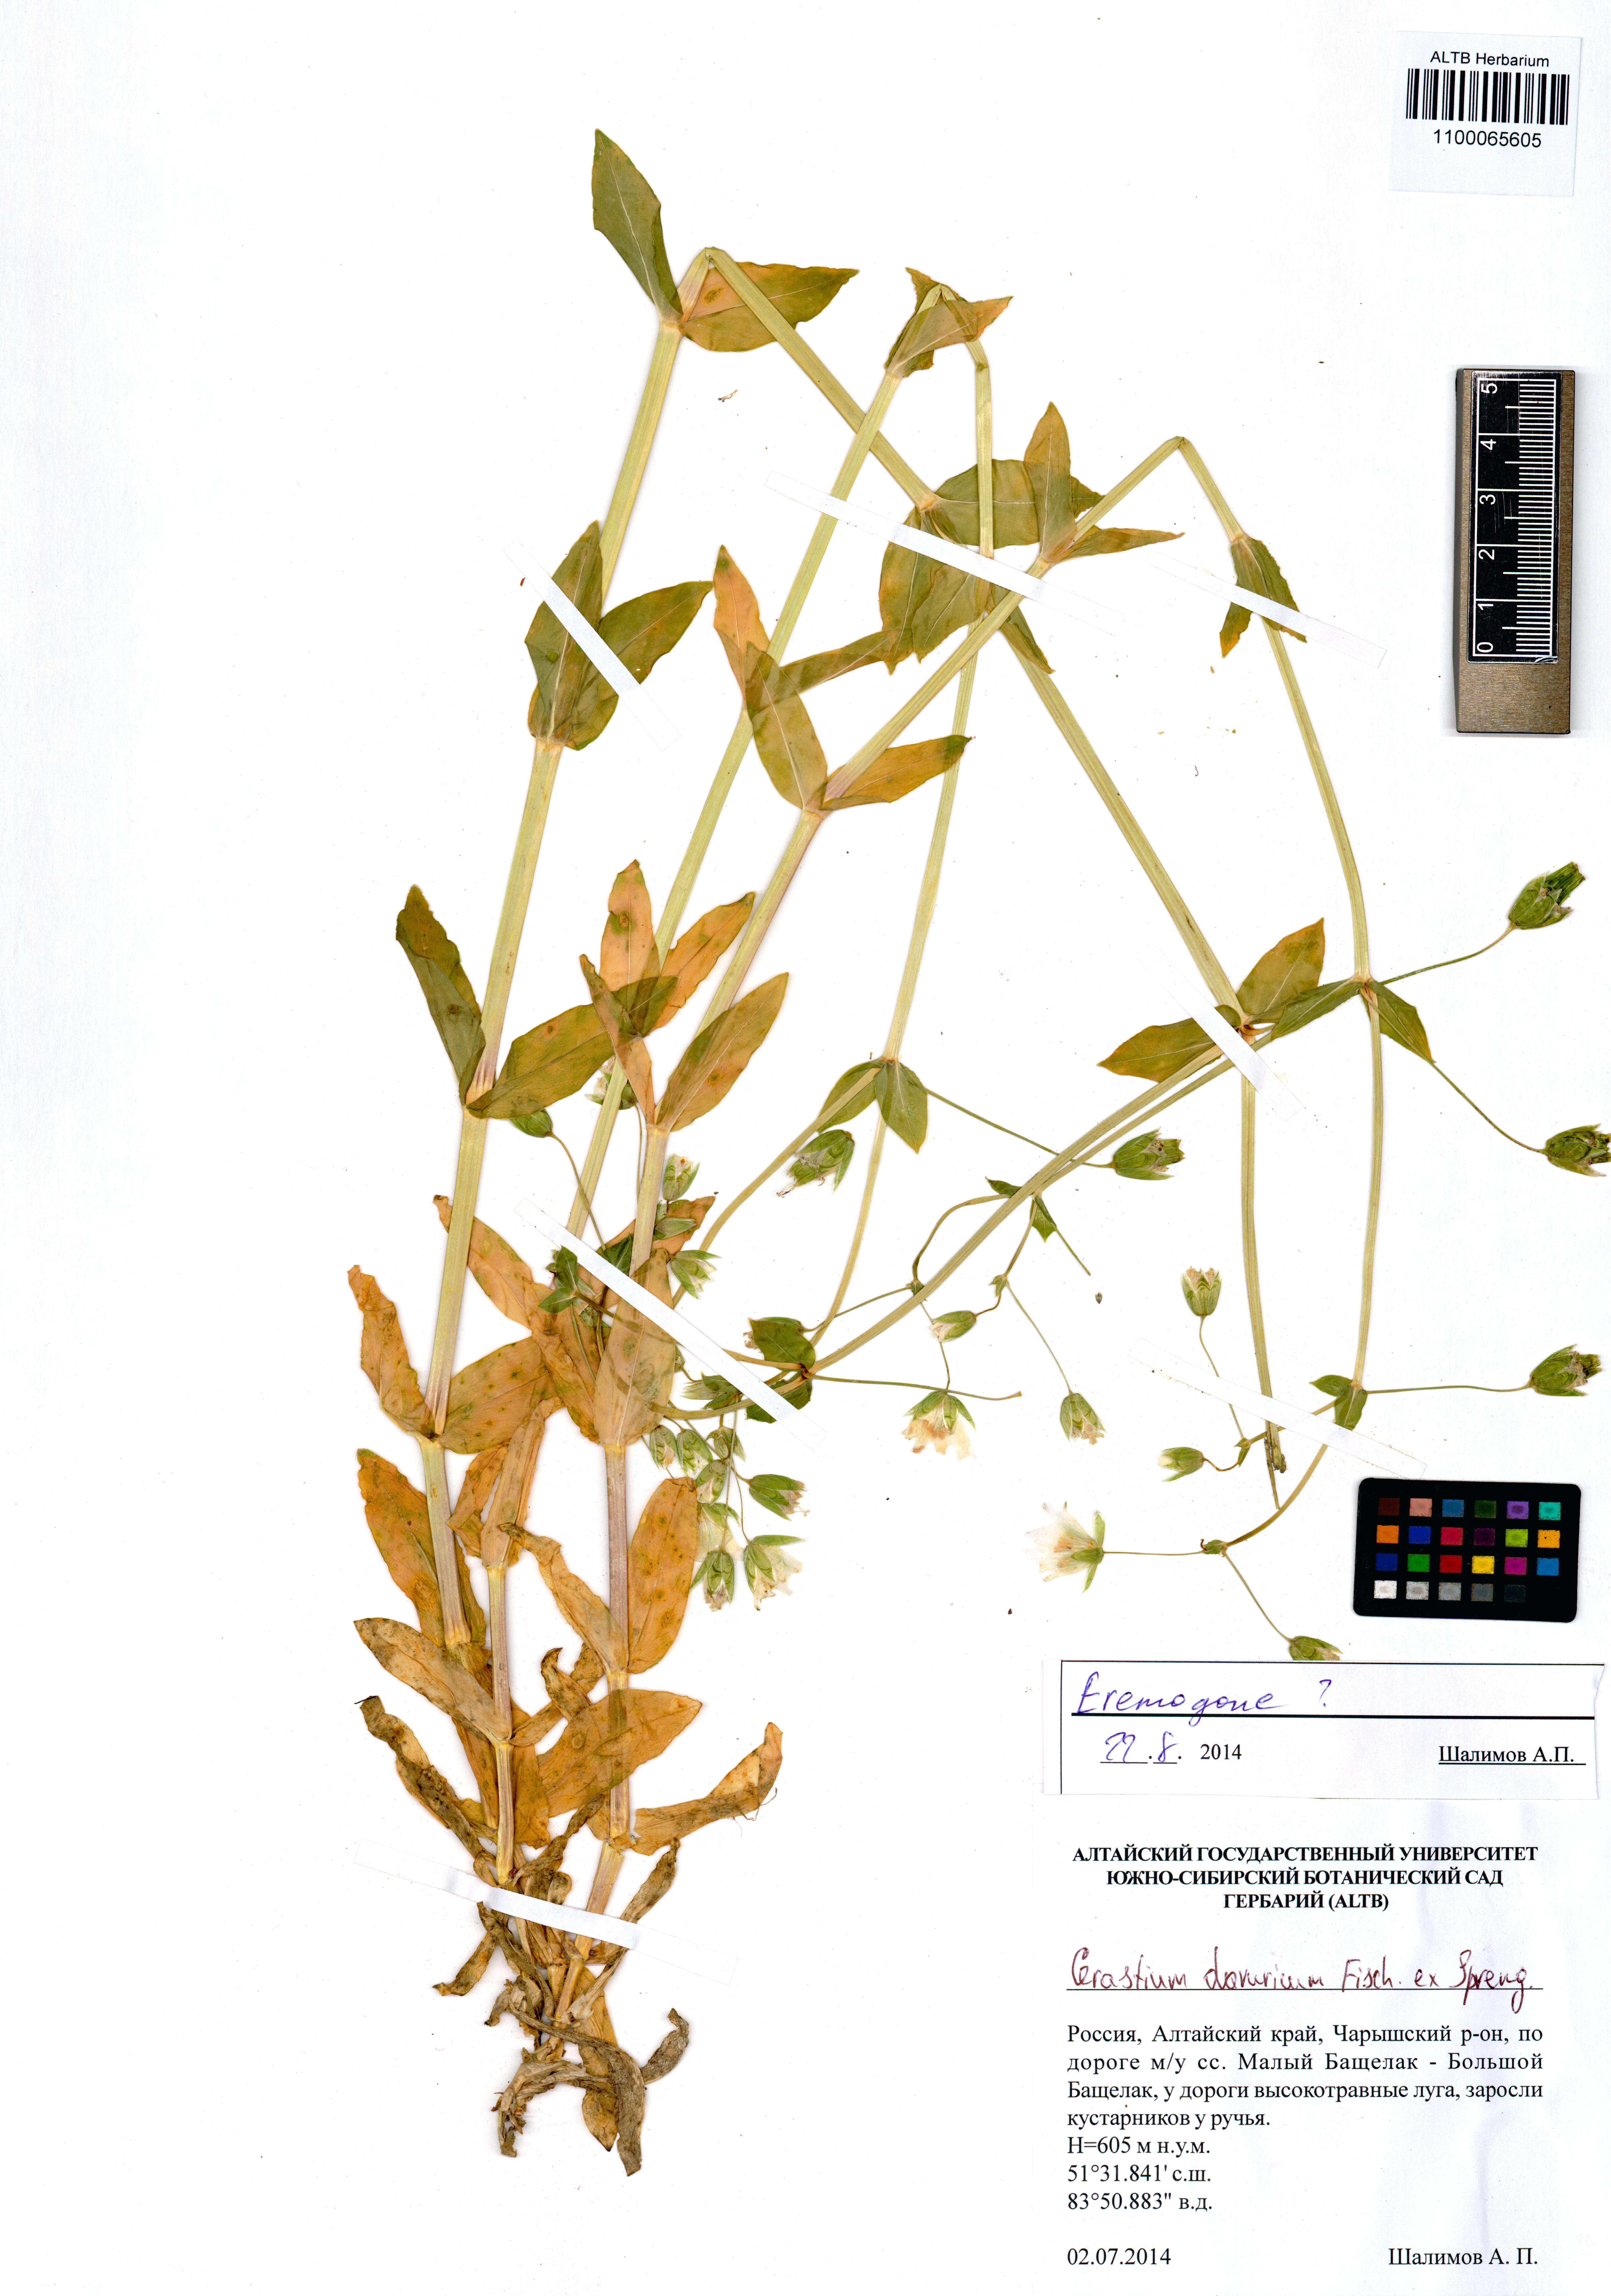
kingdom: Plantae
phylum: Tracheophyta
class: Magnoliopsida
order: Caryophyllales
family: Caryophyllaceae
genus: Dichodon
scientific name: Dichodon davuricum
